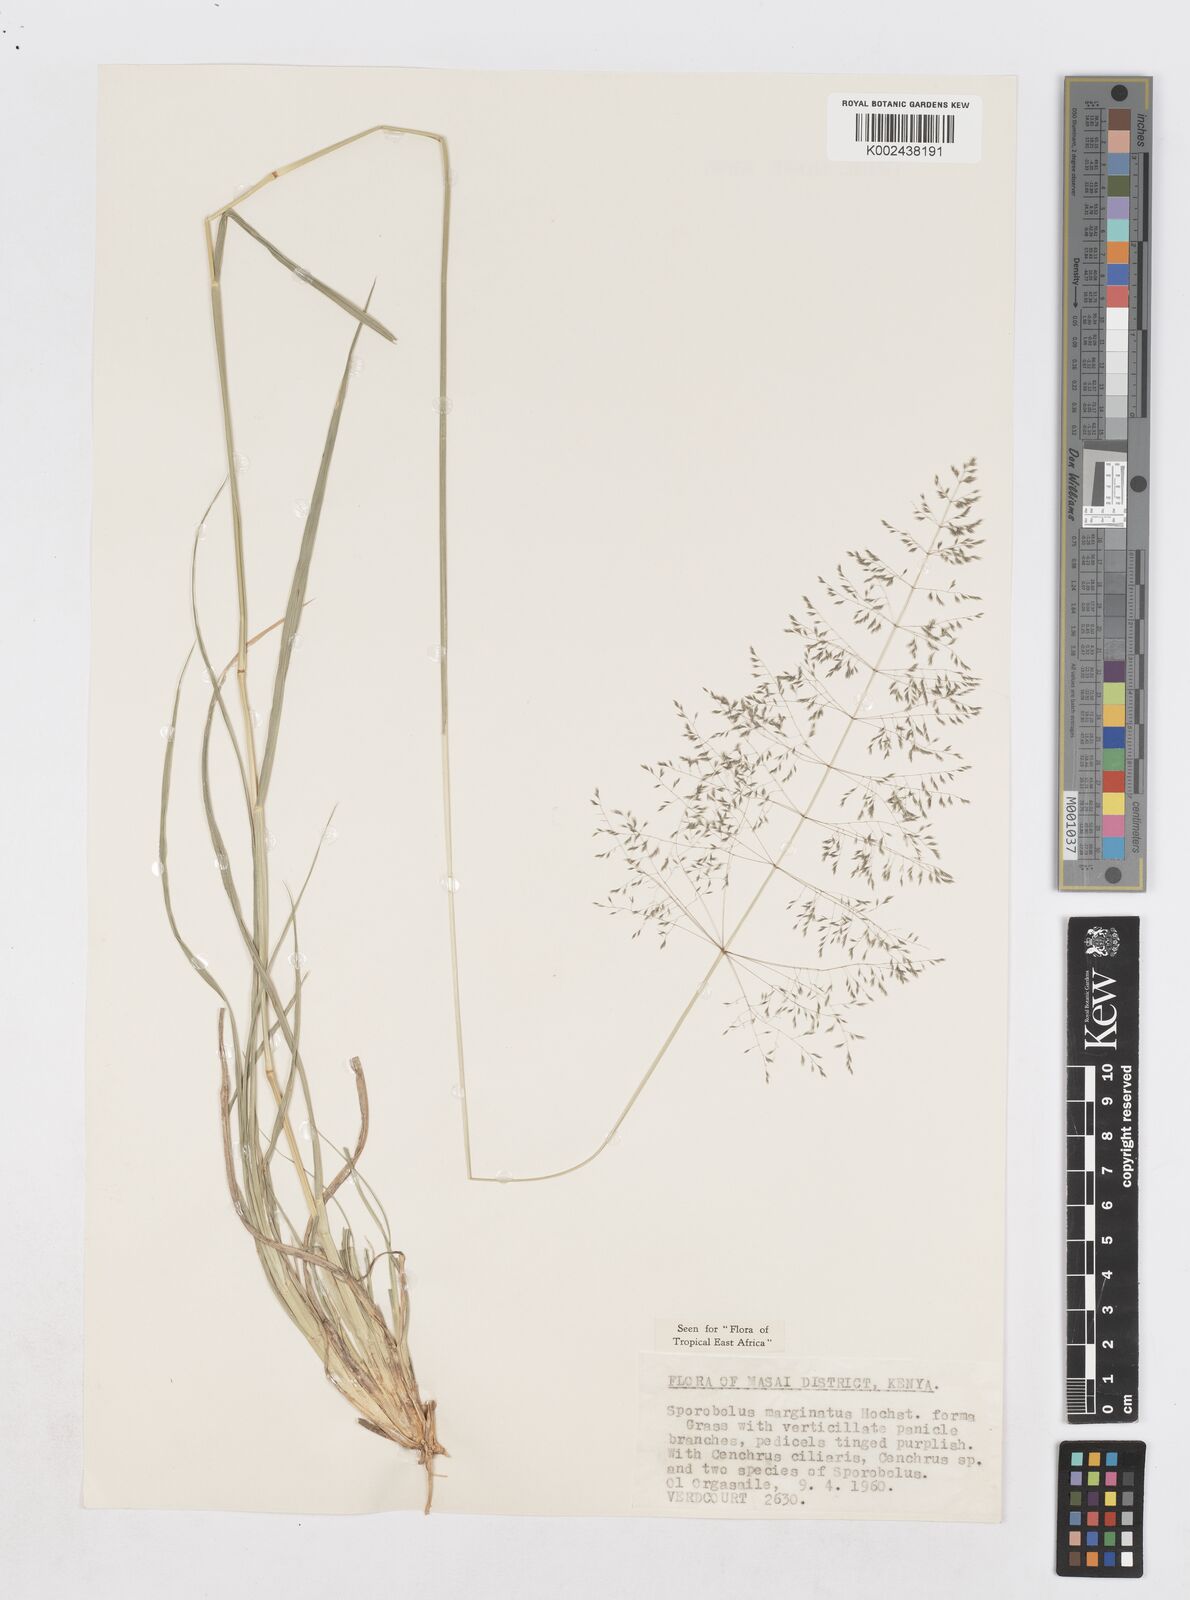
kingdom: Plantae
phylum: Tracheophyta
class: Liliopsida
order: Poales
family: Poaceae
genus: Sporobolus
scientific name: Sporobolus ioclados
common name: Pan dropseed
